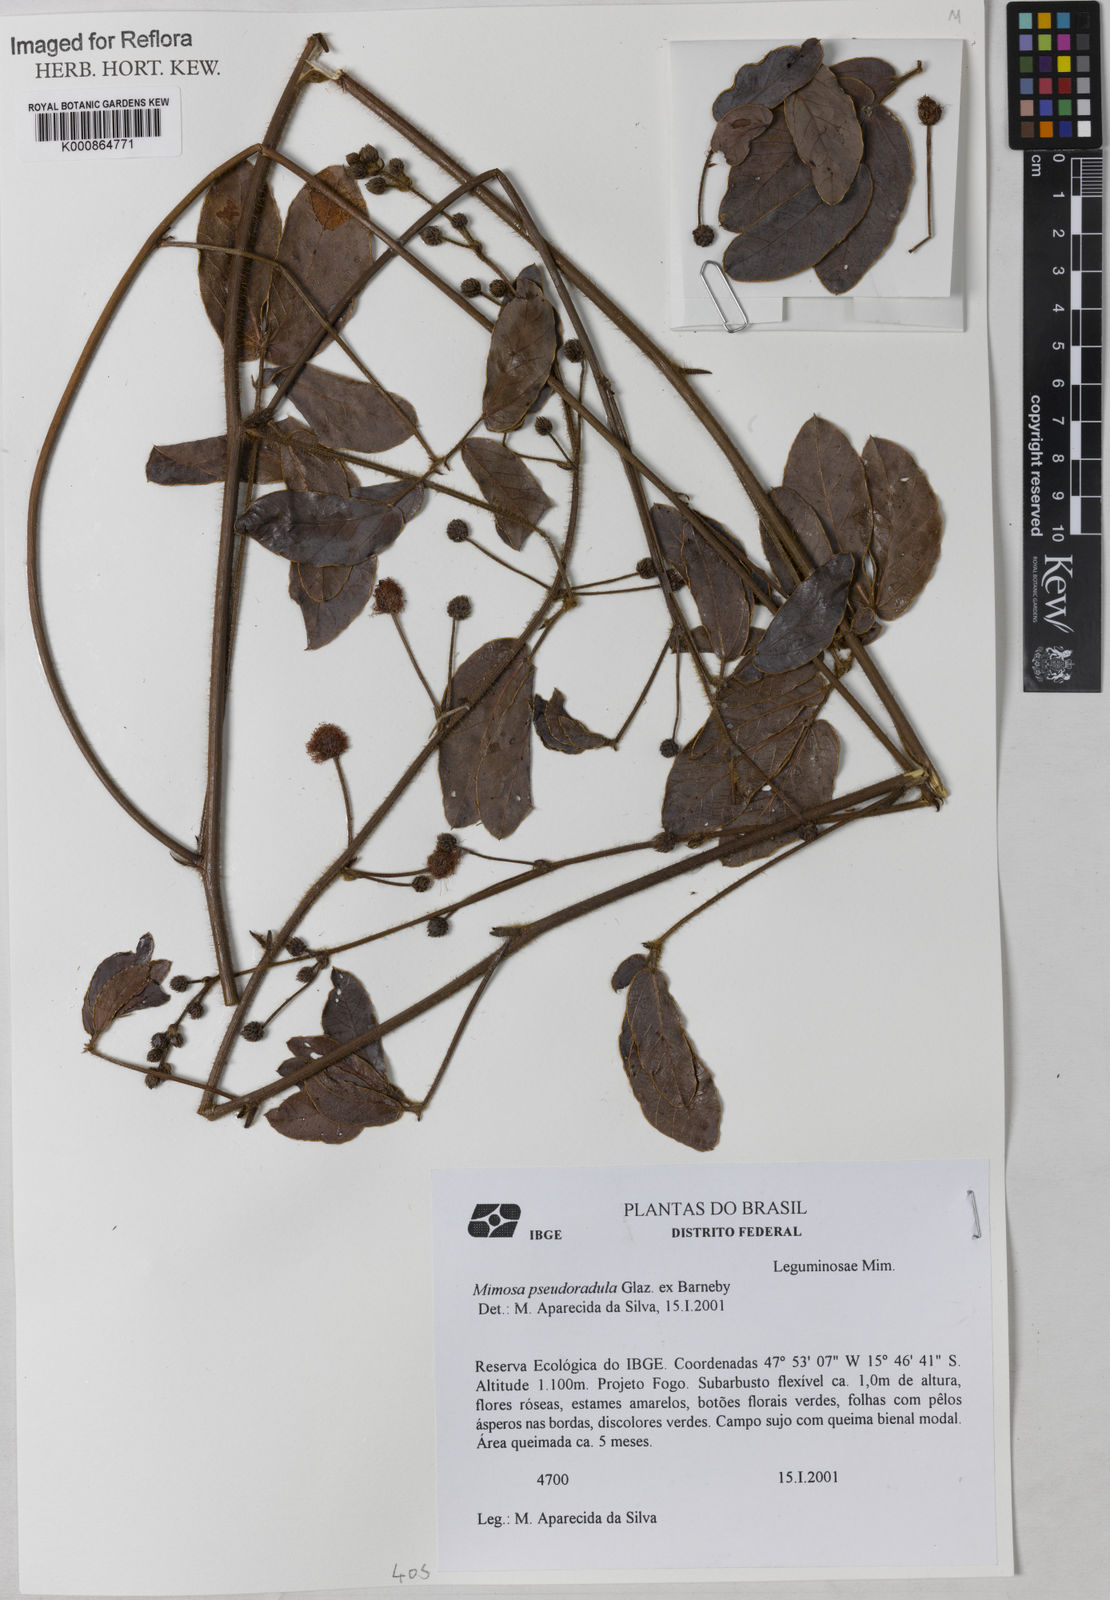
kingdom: Plantae
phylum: Tracheophyta
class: Magnoliopsida
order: Fabales
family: Fabaceae
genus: Mimosa
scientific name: Mimosa pseudoradula
